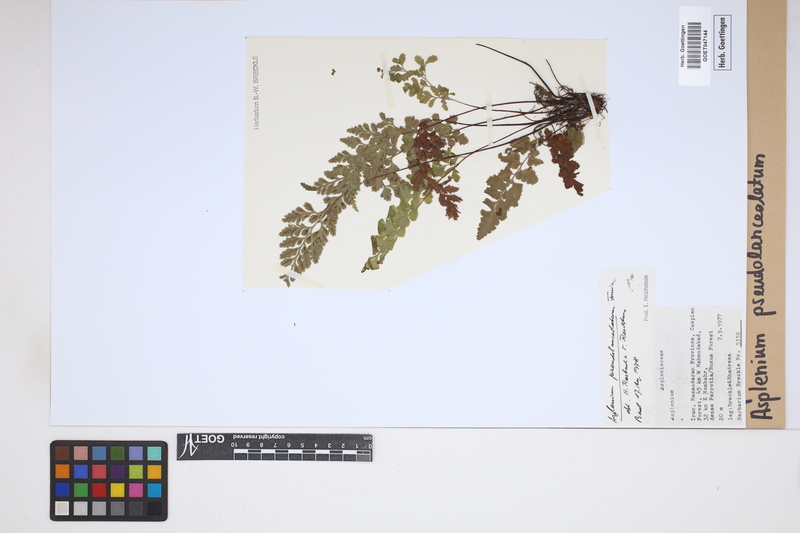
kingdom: Plantae
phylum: Tracheophyta
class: Polypodiopsida
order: Polypodiales
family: Aspleniaceae
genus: Asplenium
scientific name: Asplenium adiantum-nigrum
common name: Black spleenwort
